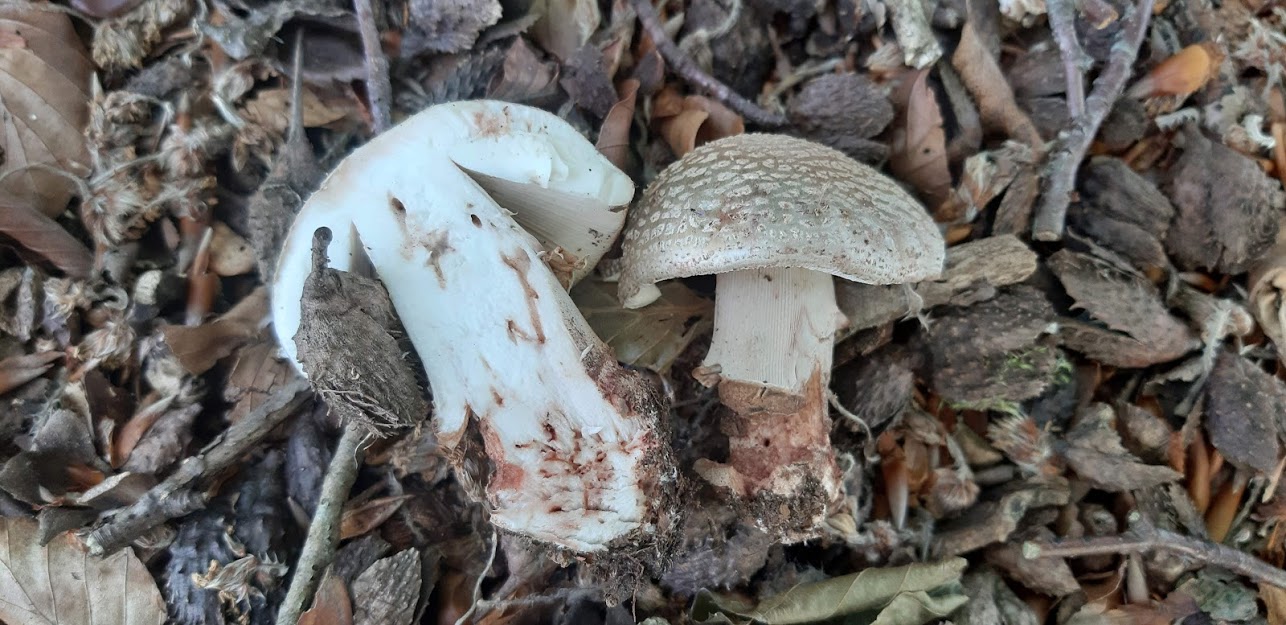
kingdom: Fungi
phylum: Basidiomycota
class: Agaricomycetes
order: Agaricales
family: Amanitaceae
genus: Amanita
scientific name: Amanita rubescens
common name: rødmende fluesvamp
